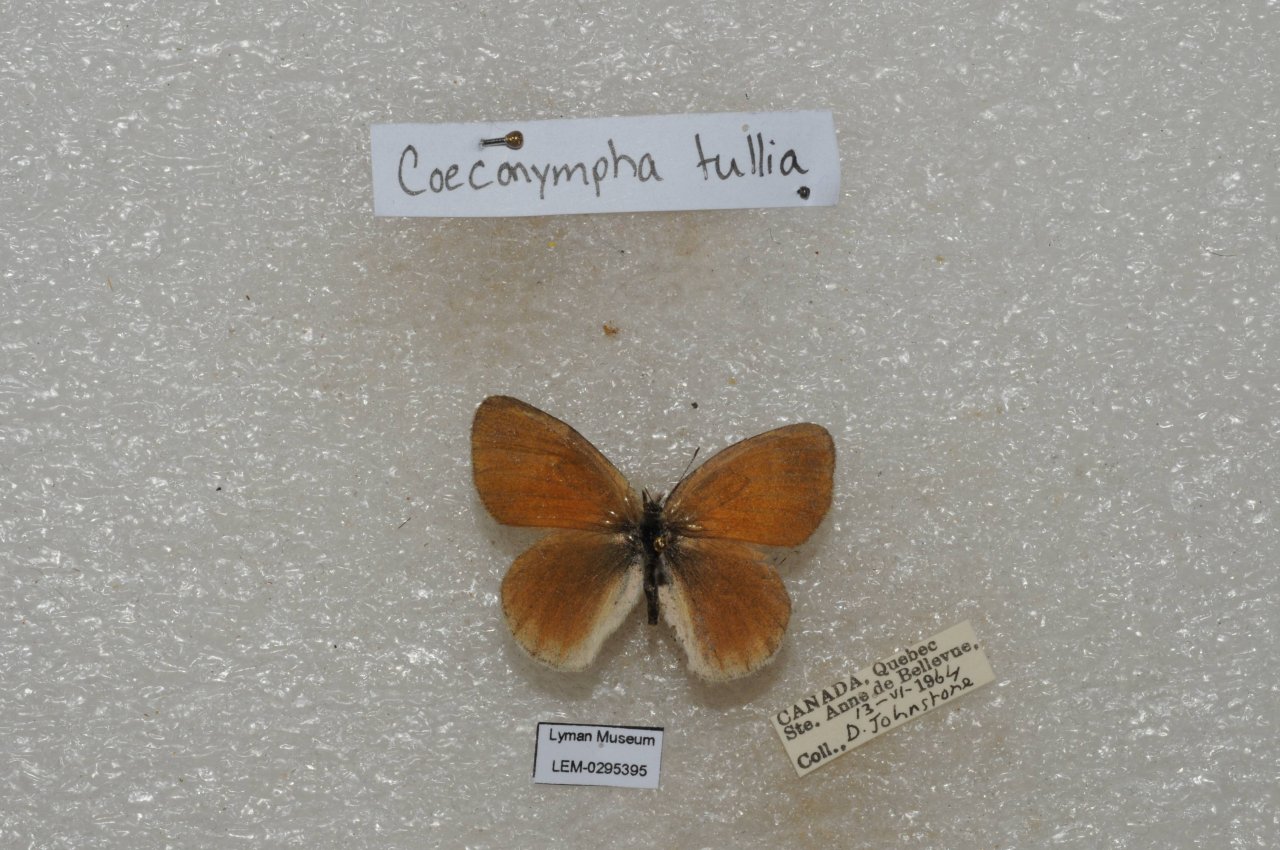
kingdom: Animalia
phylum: Arthropoda
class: Insecta
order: Lepidoptera
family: Nymphalidae
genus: Coenonympha
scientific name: Coenonympha tullia
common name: Large Heath
